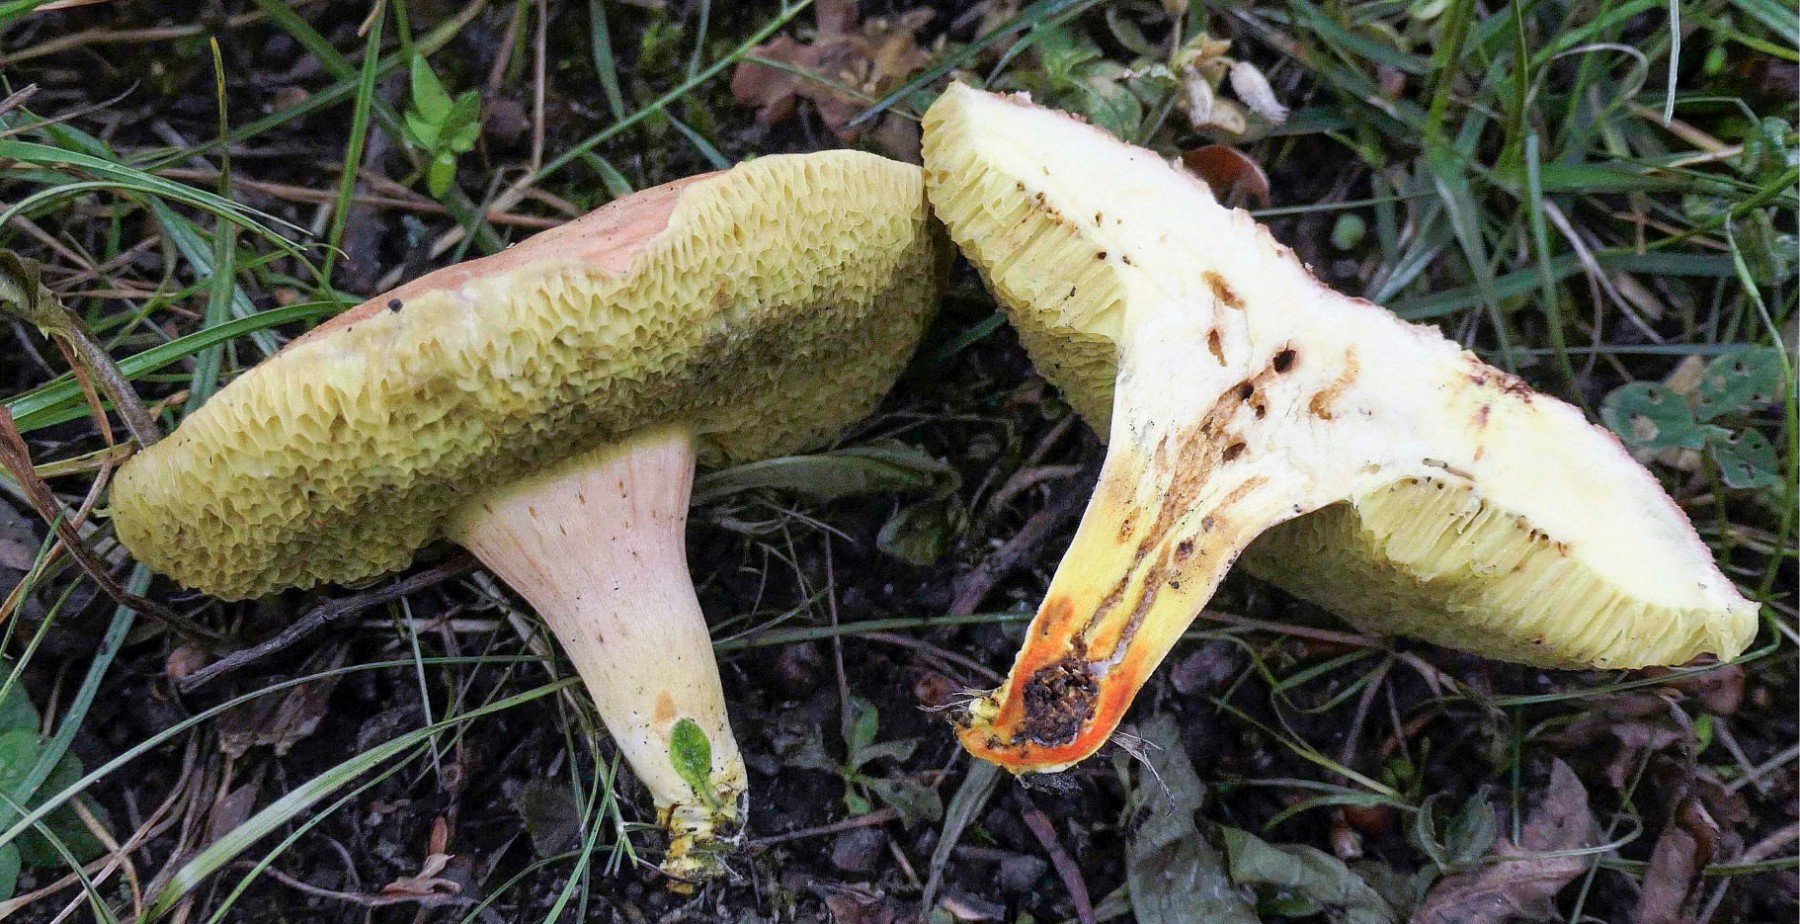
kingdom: Fungi
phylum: Basidiomycota
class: Agaricomycetes
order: Boletales
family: Boletaceae
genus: Hortiboletus
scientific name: Hortiboletus engelii
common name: fersken-rørhat
